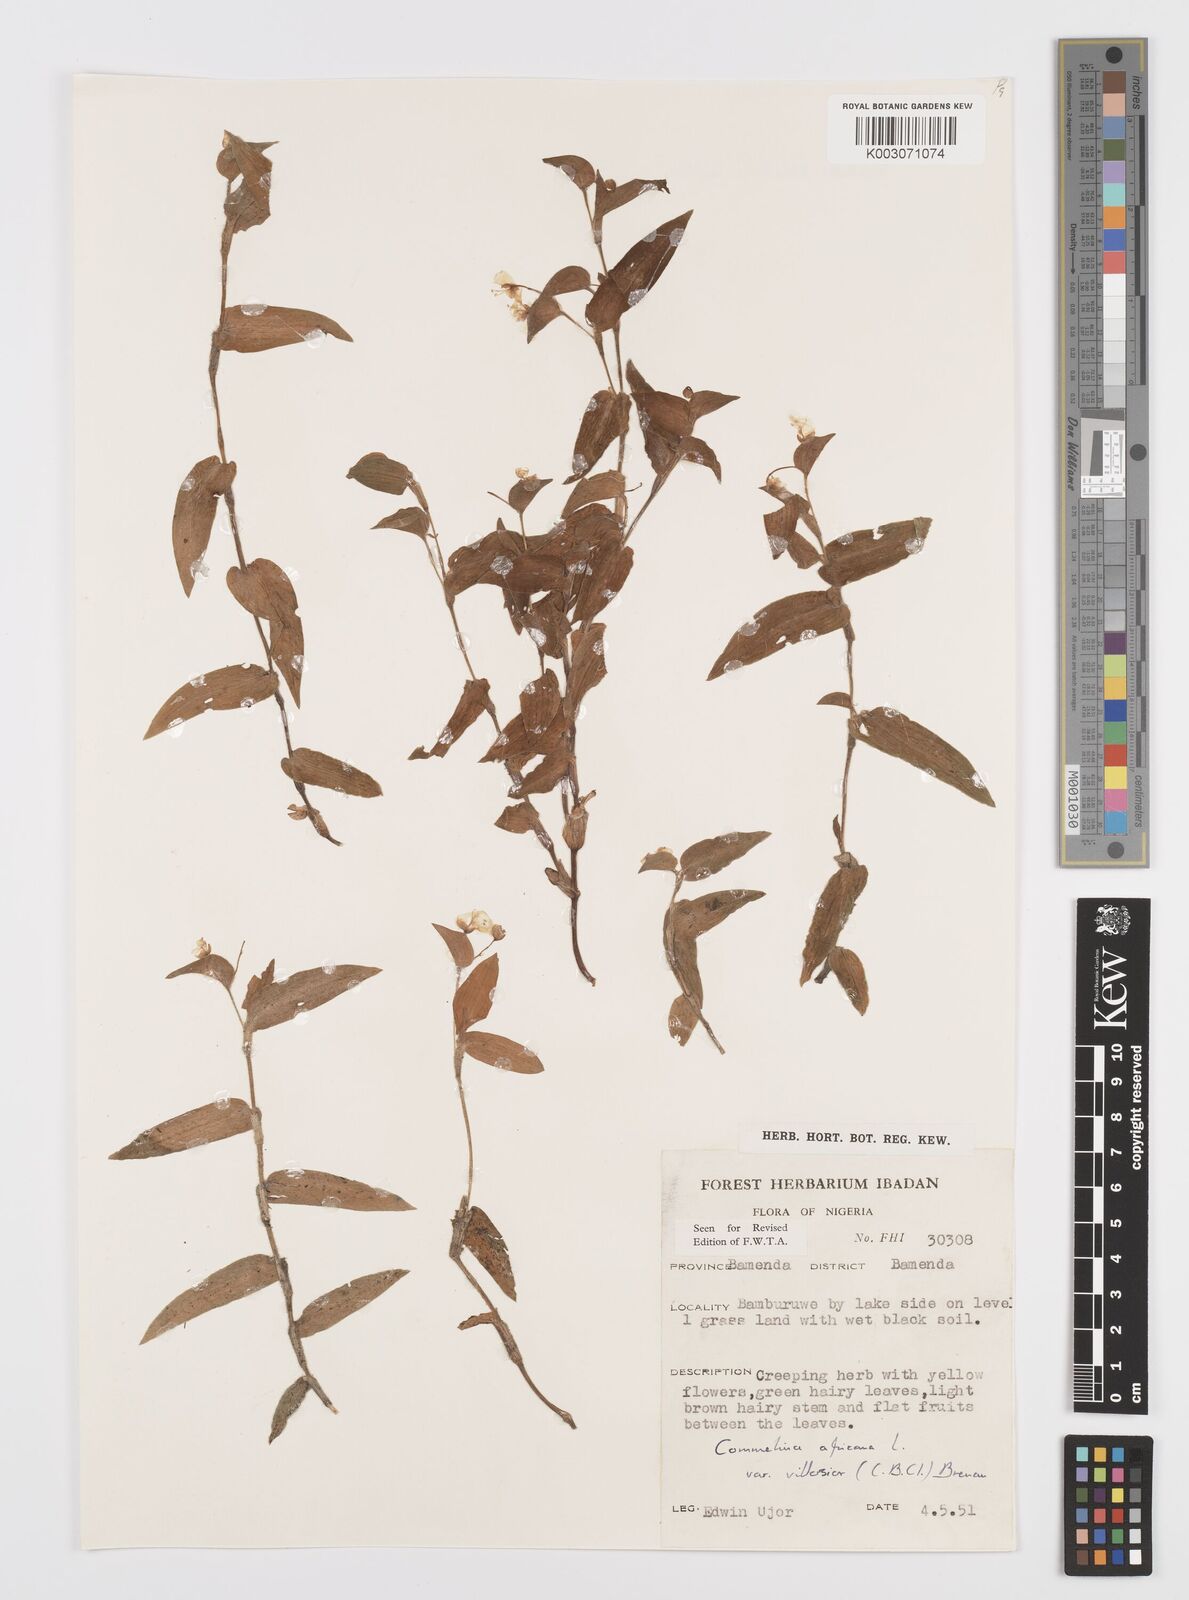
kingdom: Plantae
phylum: Tracheophyta
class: Liliopsida
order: Commelinales
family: Commelinaceae
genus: Commelina
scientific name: Commelina africana
